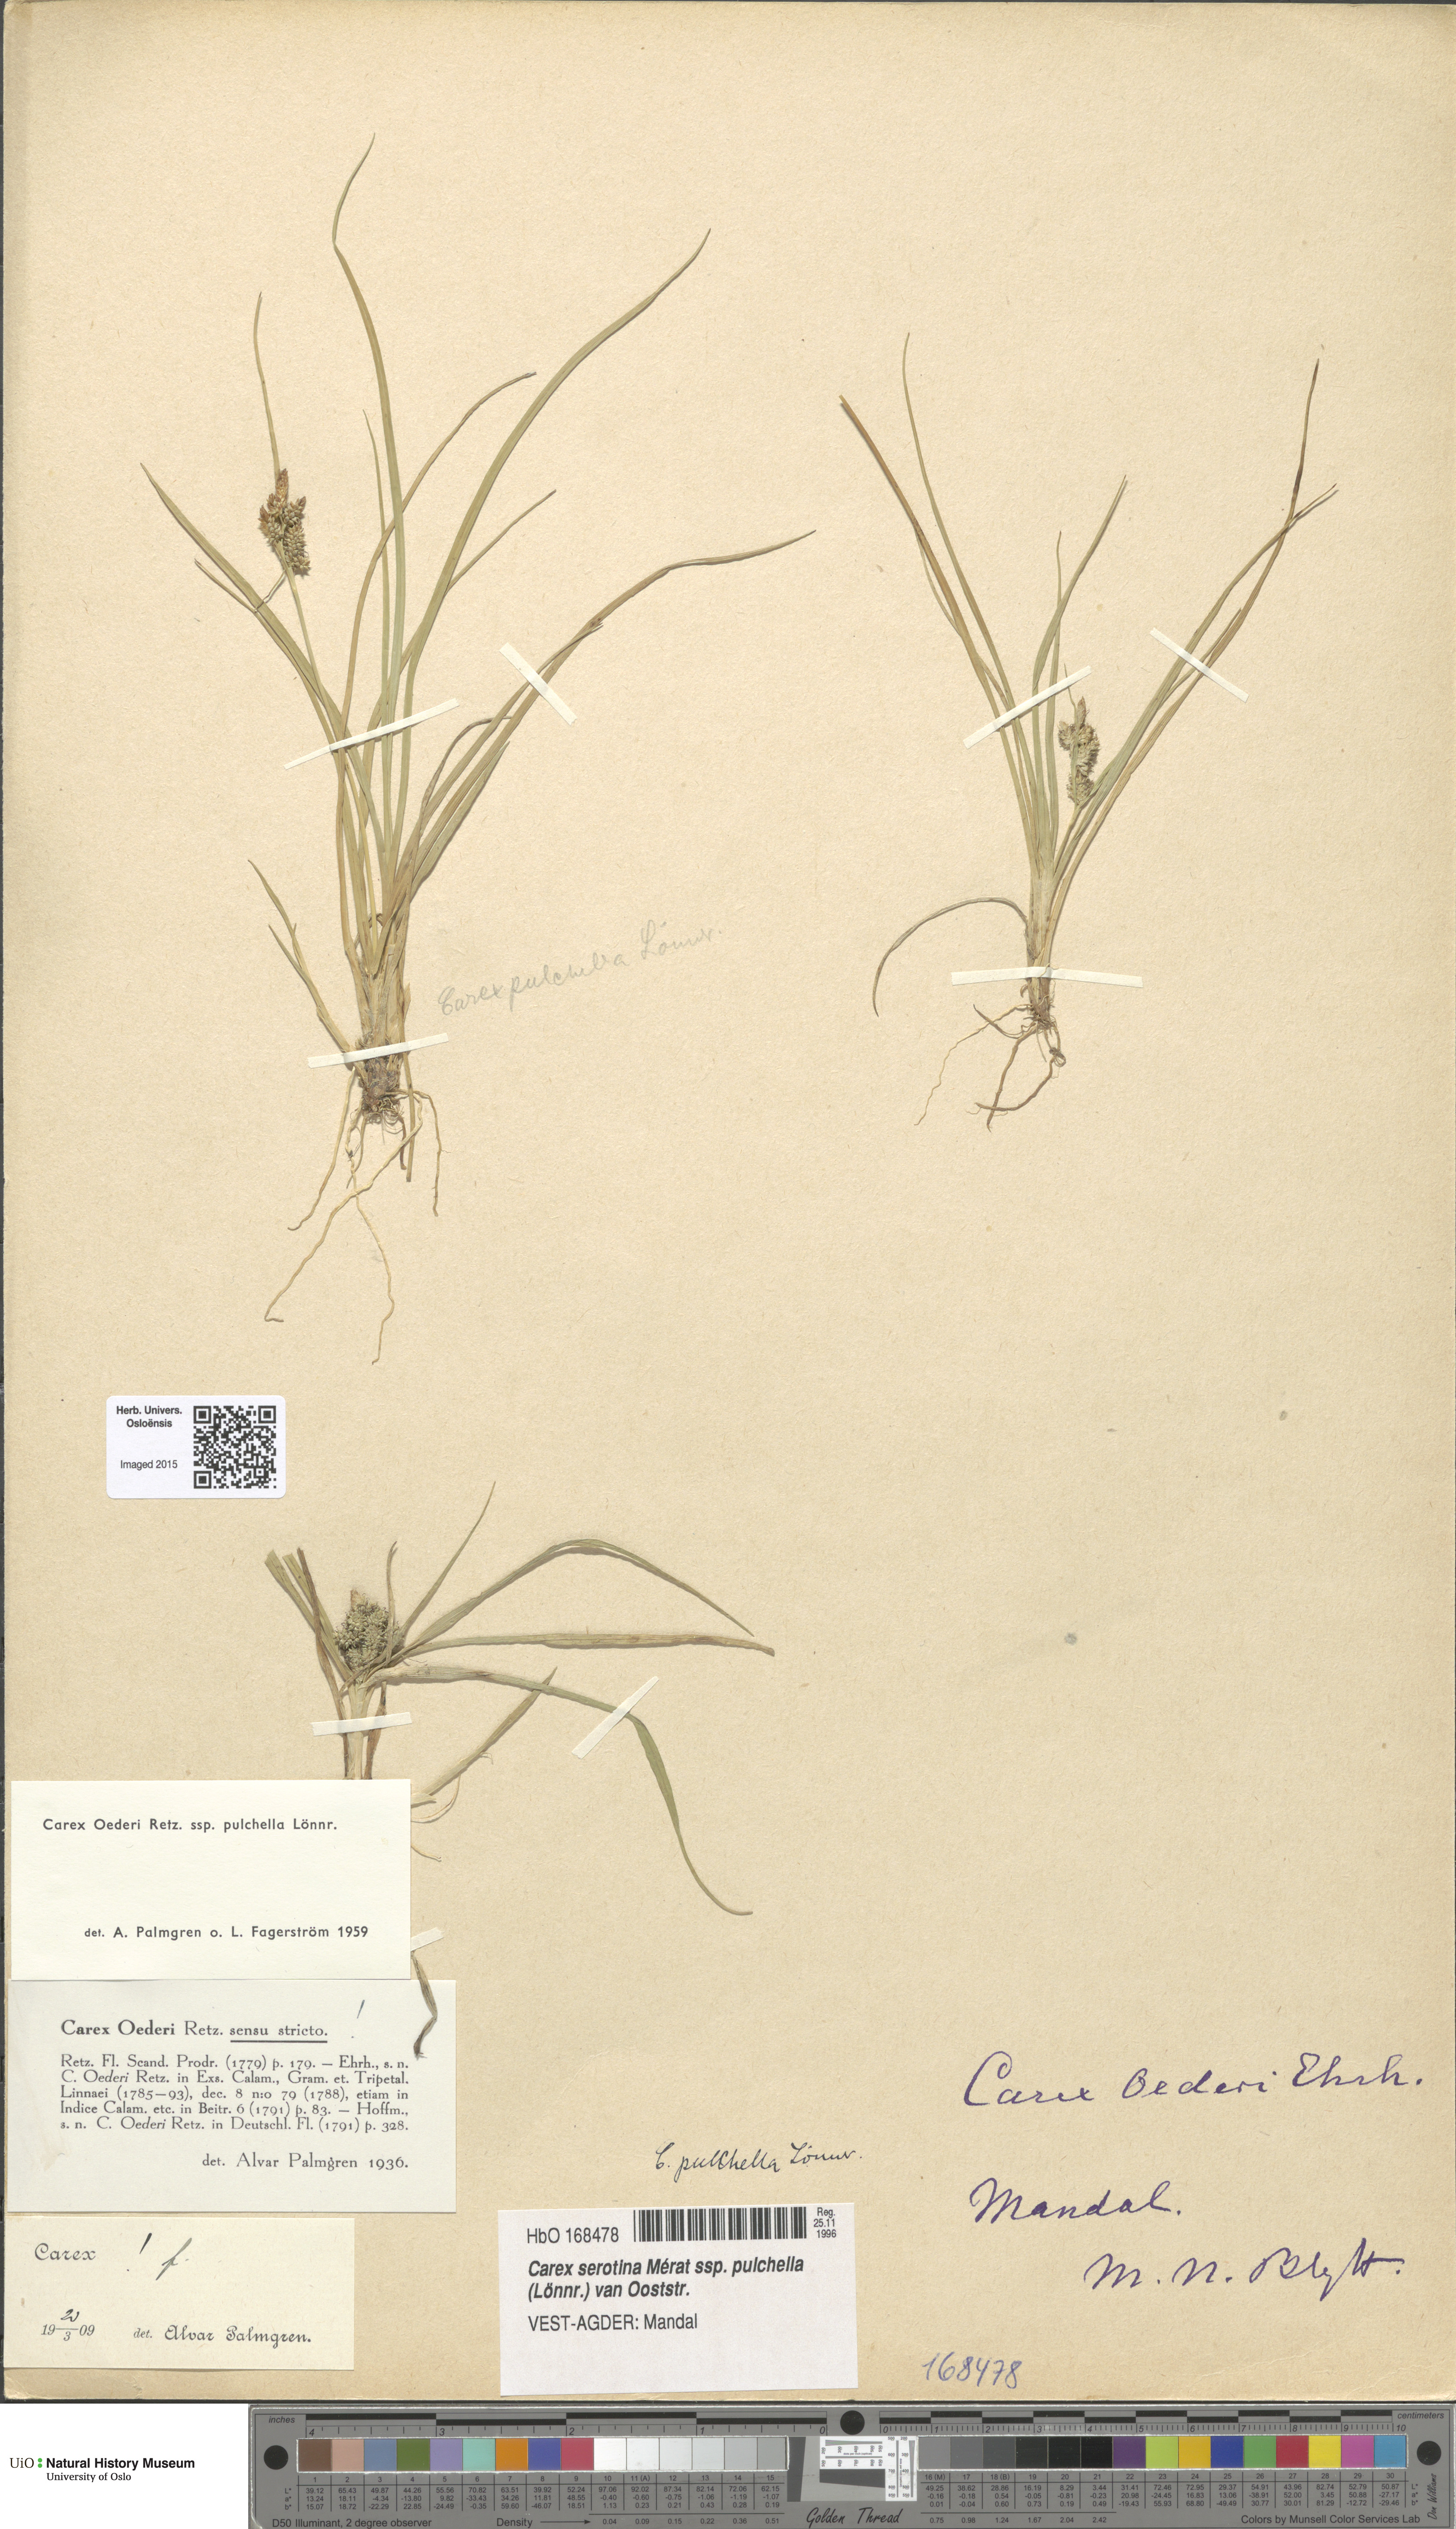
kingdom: Plantae
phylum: Tracheophyta
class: Liliopsida
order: Poales
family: Cyperaceae
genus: Carex
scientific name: Carex oederi
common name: Common & small-fruited yellow-sedge
